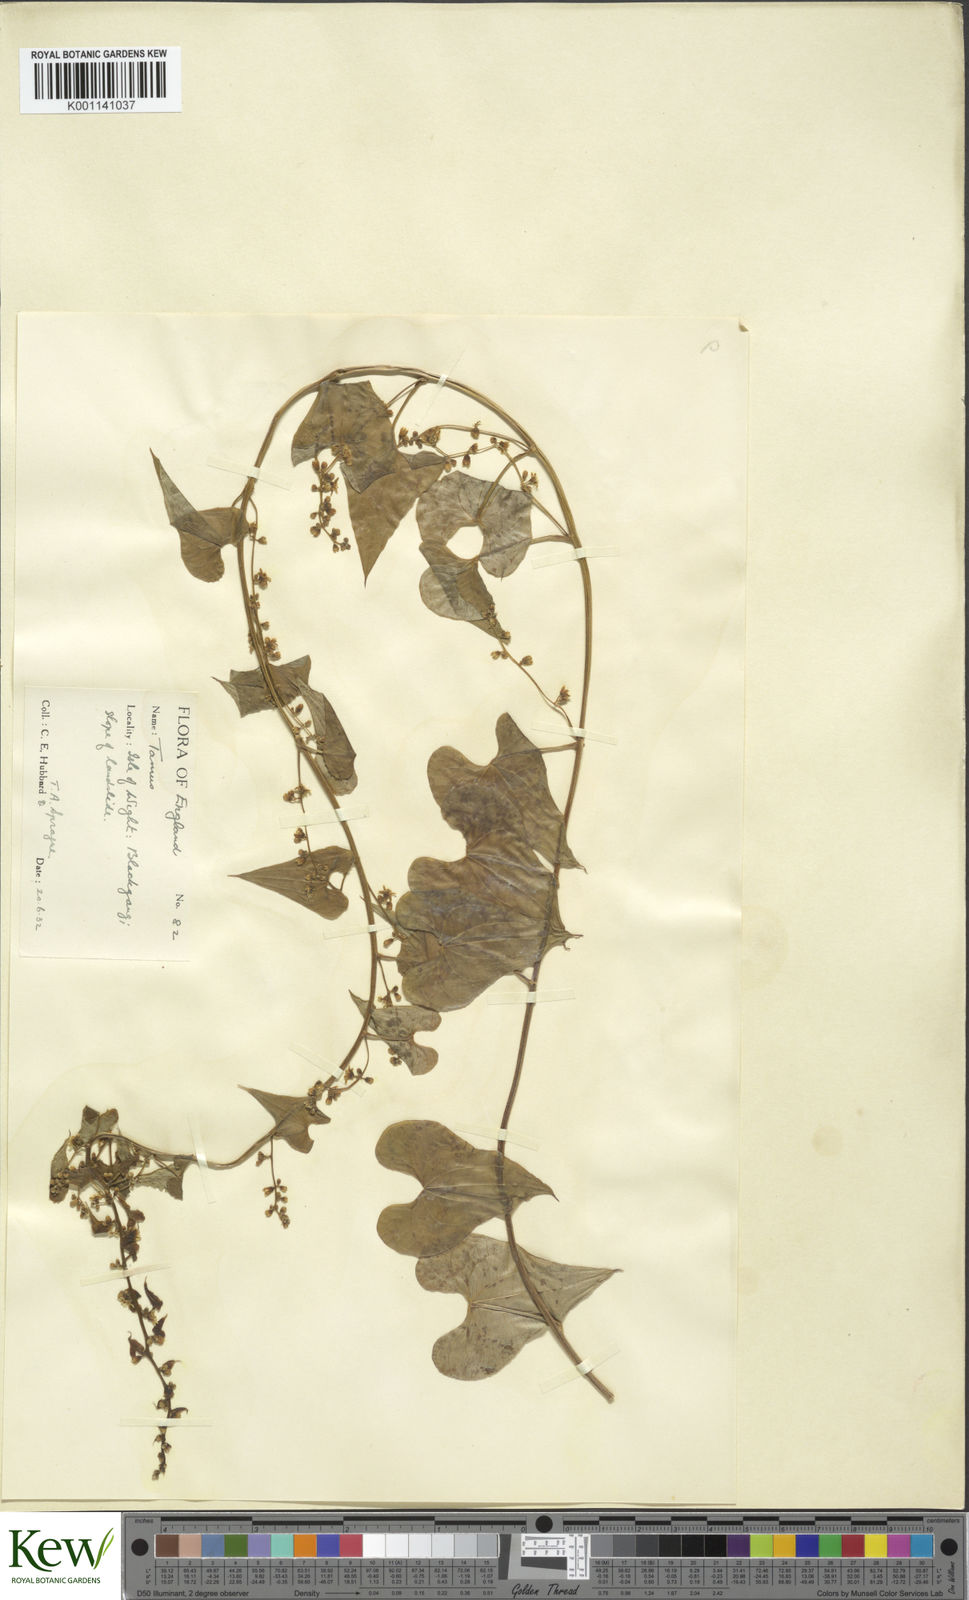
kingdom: Plantae
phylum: Tracheophyta
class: Liliopsida
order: Dioscoreales
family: Dioscoreaceae
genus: Dioscorea
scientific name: Dioscorea communis
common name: Black-bindweed
